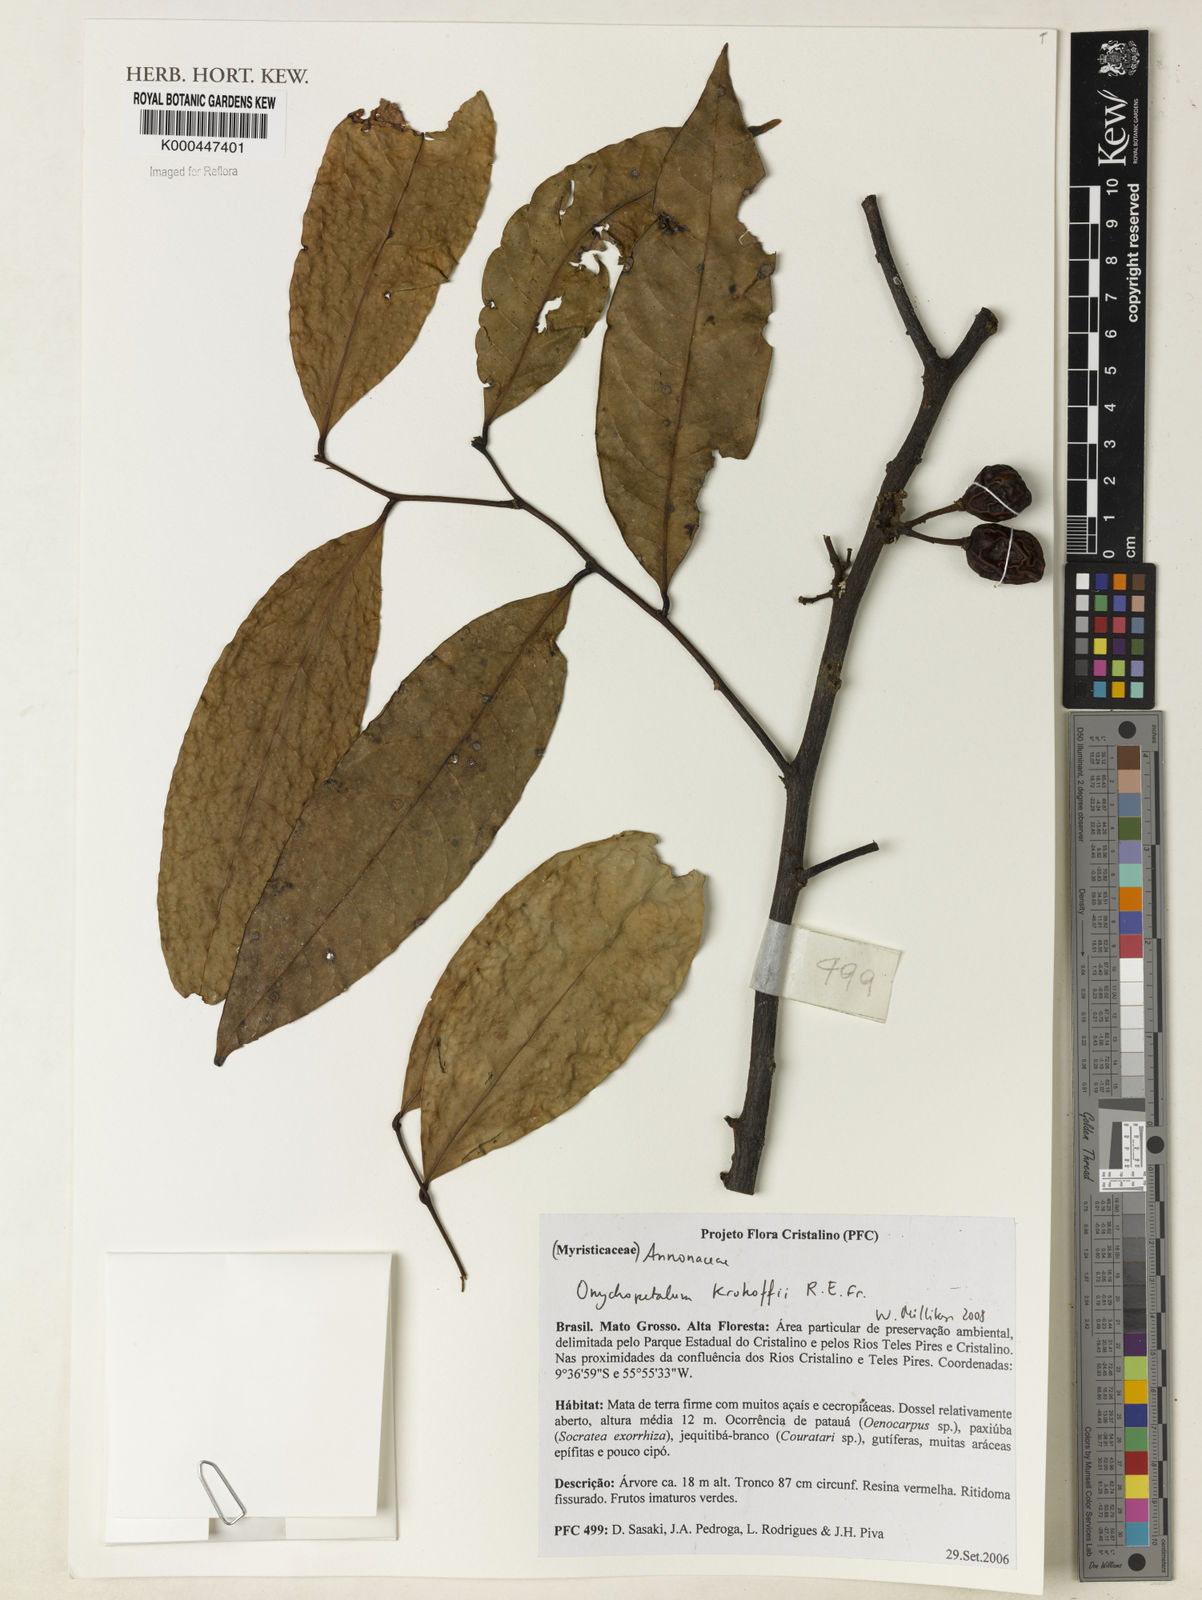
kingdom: Plantae
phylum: Tracheophyta
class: Magnoliopsida
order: Magnoliales
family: Annonaceae
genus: Onychopetalum
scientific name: Onychopetalum periquino
